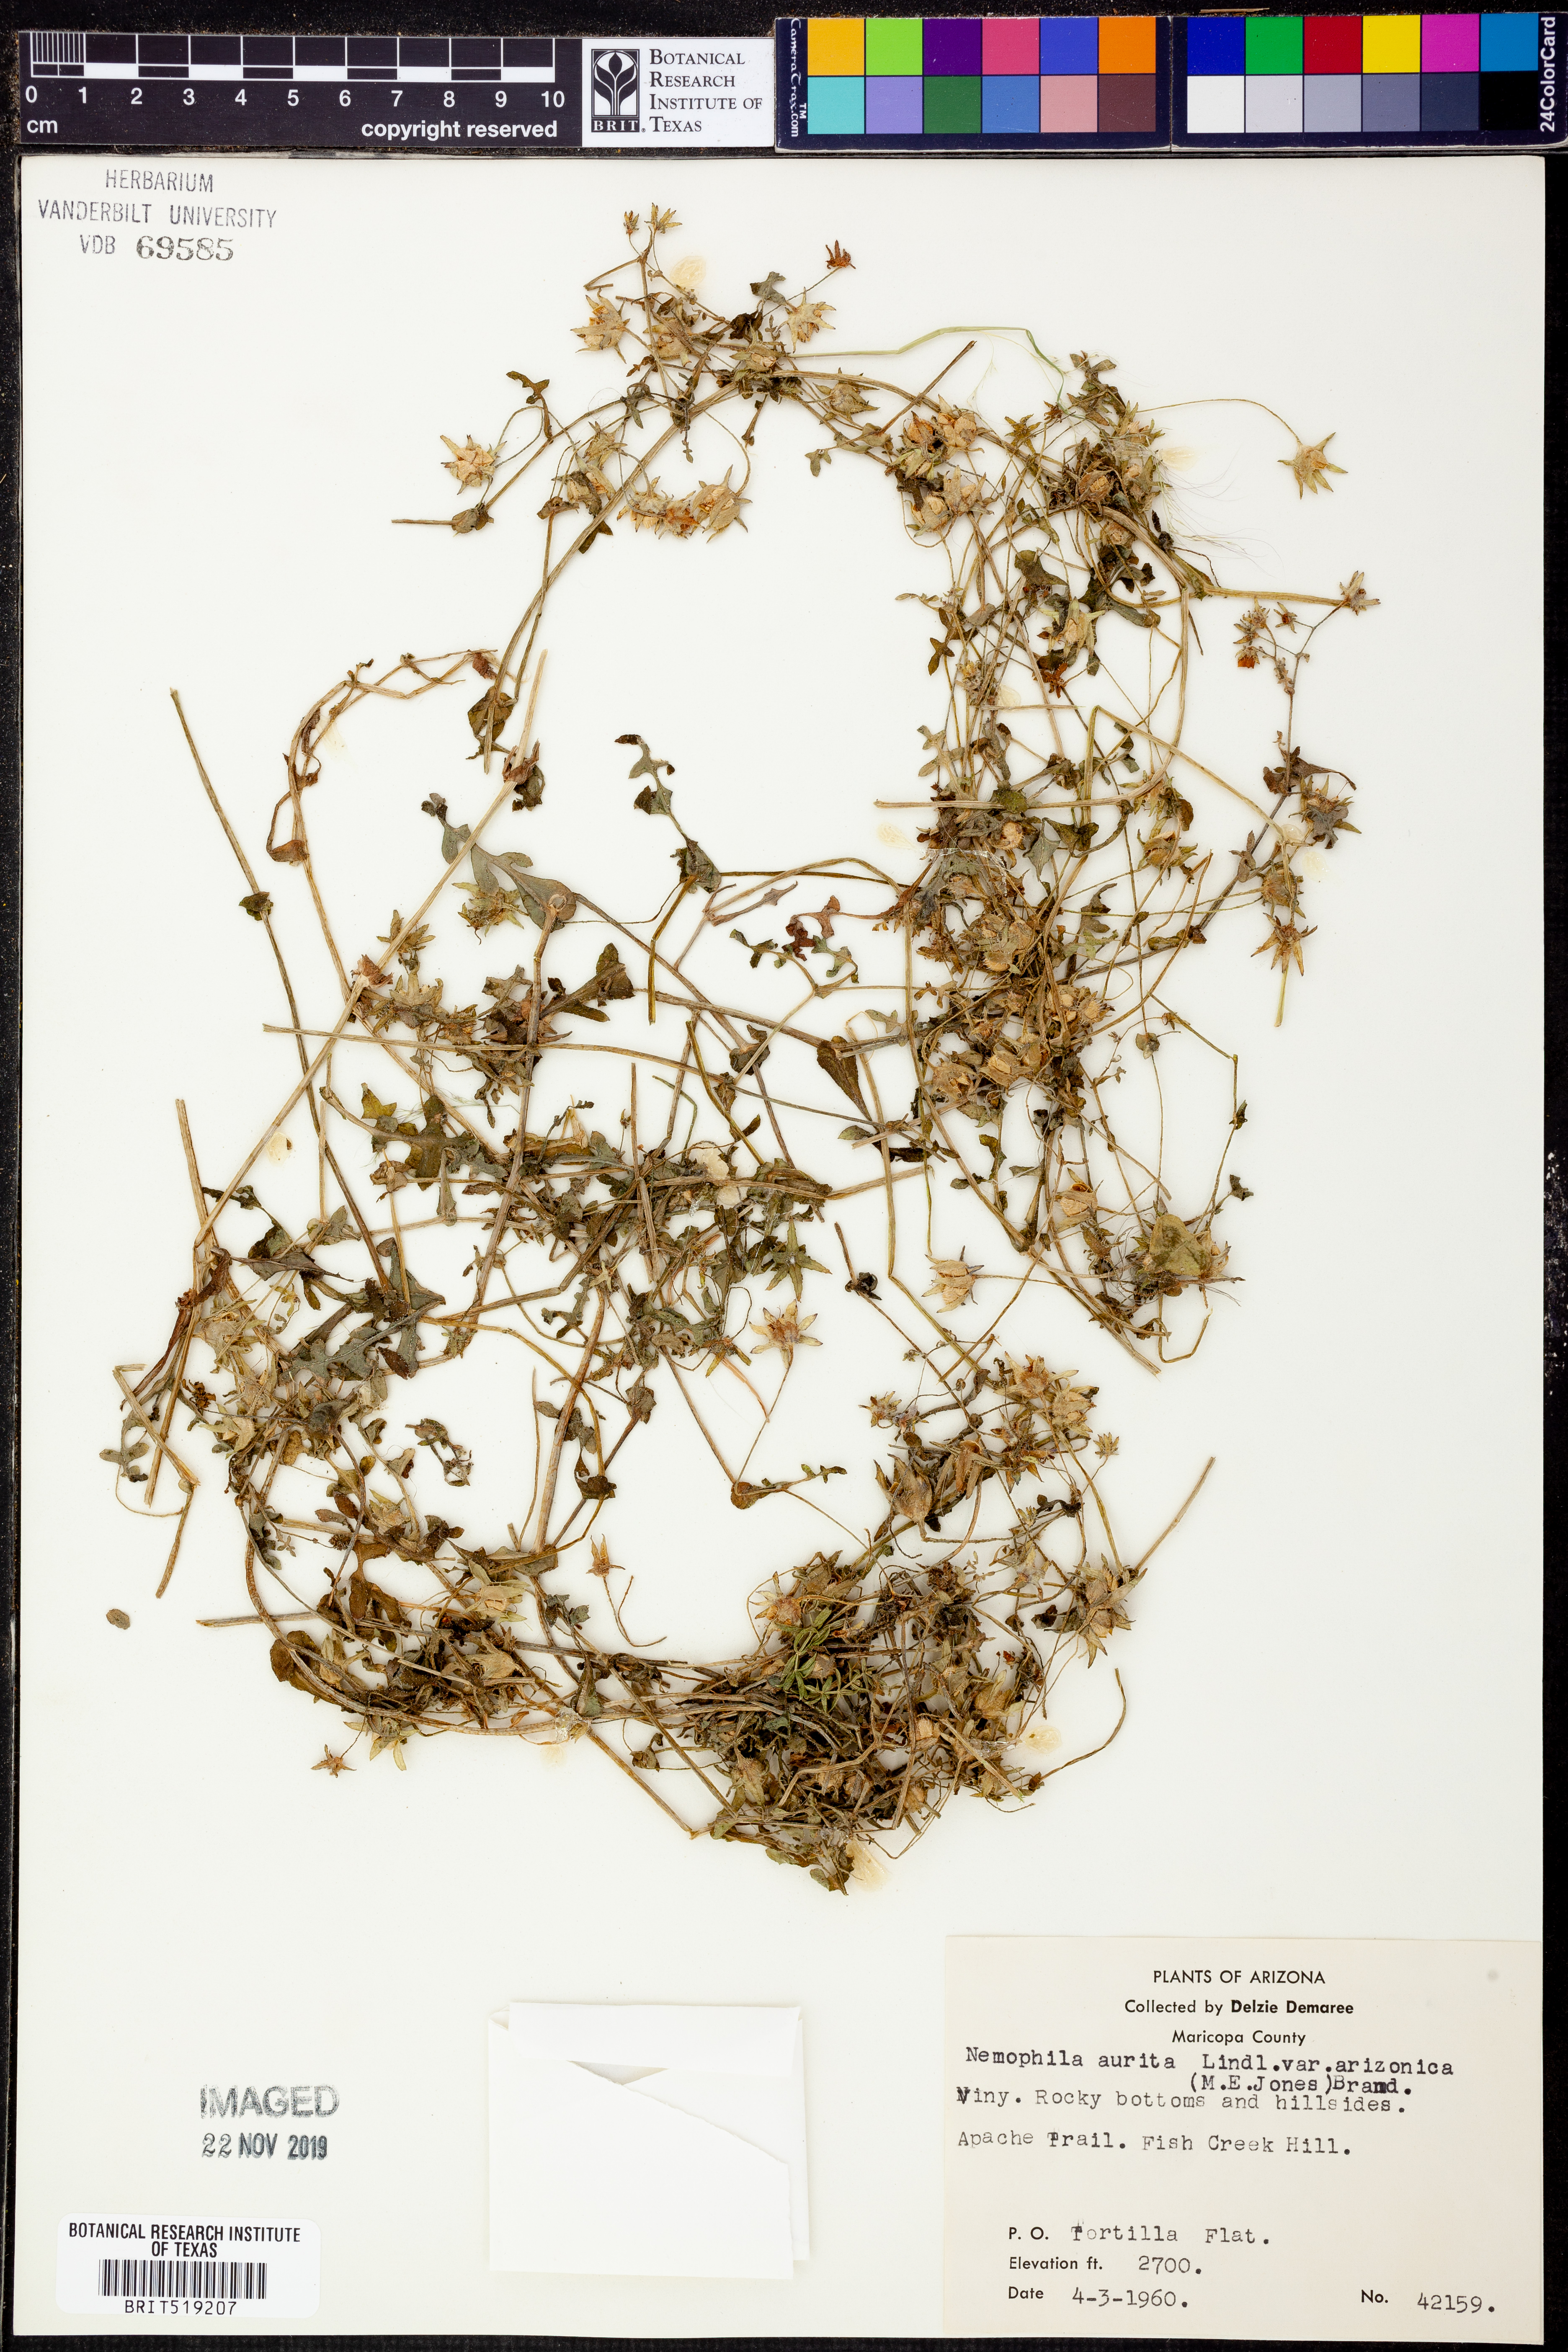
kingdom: Plantae
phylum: Tracheophyta
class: Magnoliopsida
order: Boraginales
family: Hydrophyllaceae
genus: Pholistoma
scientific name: Pholistoma auritum
